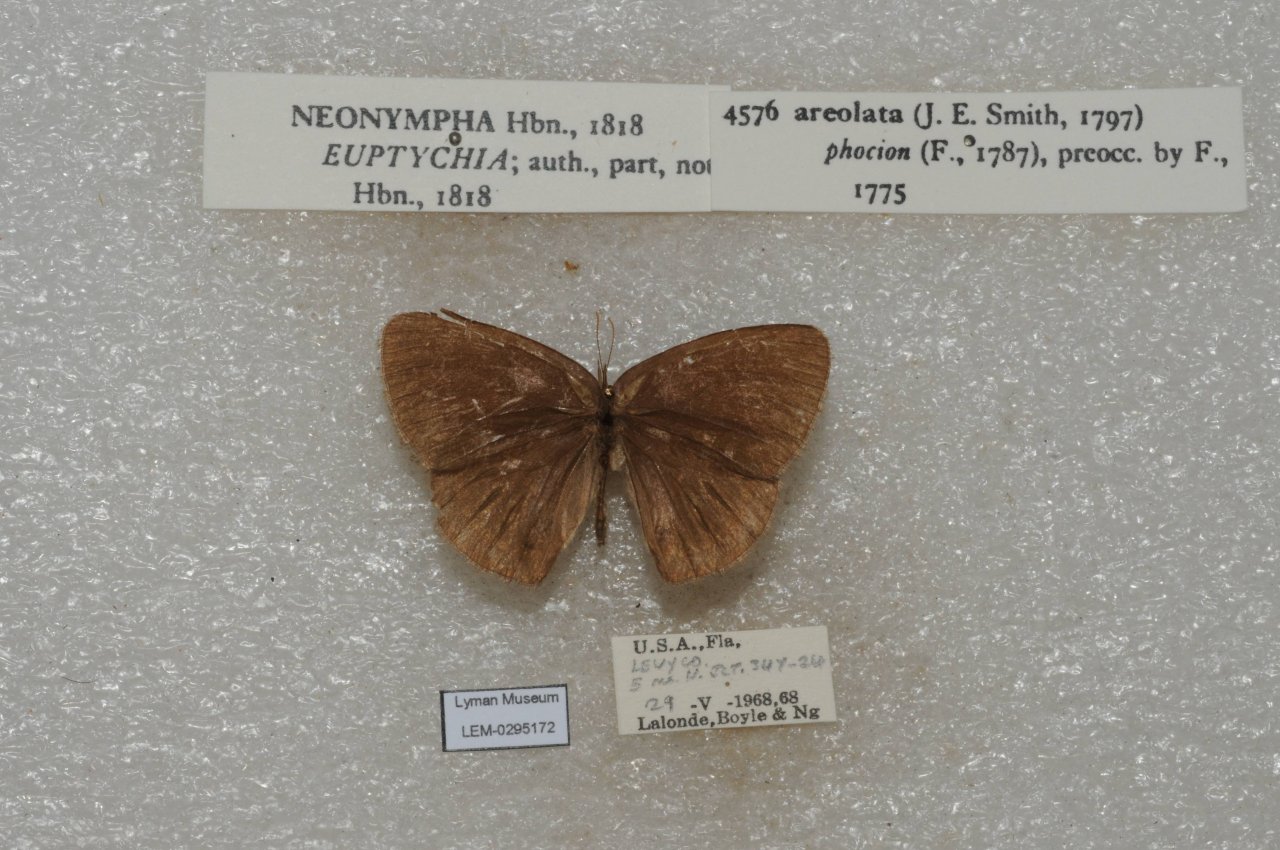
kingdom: Animalia
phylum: Arthropoda
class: Insecta
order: Lepidoptera
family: Nymphalidae
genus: Euptychia
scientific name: Euptychia phocion
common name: Georgia Satyr
